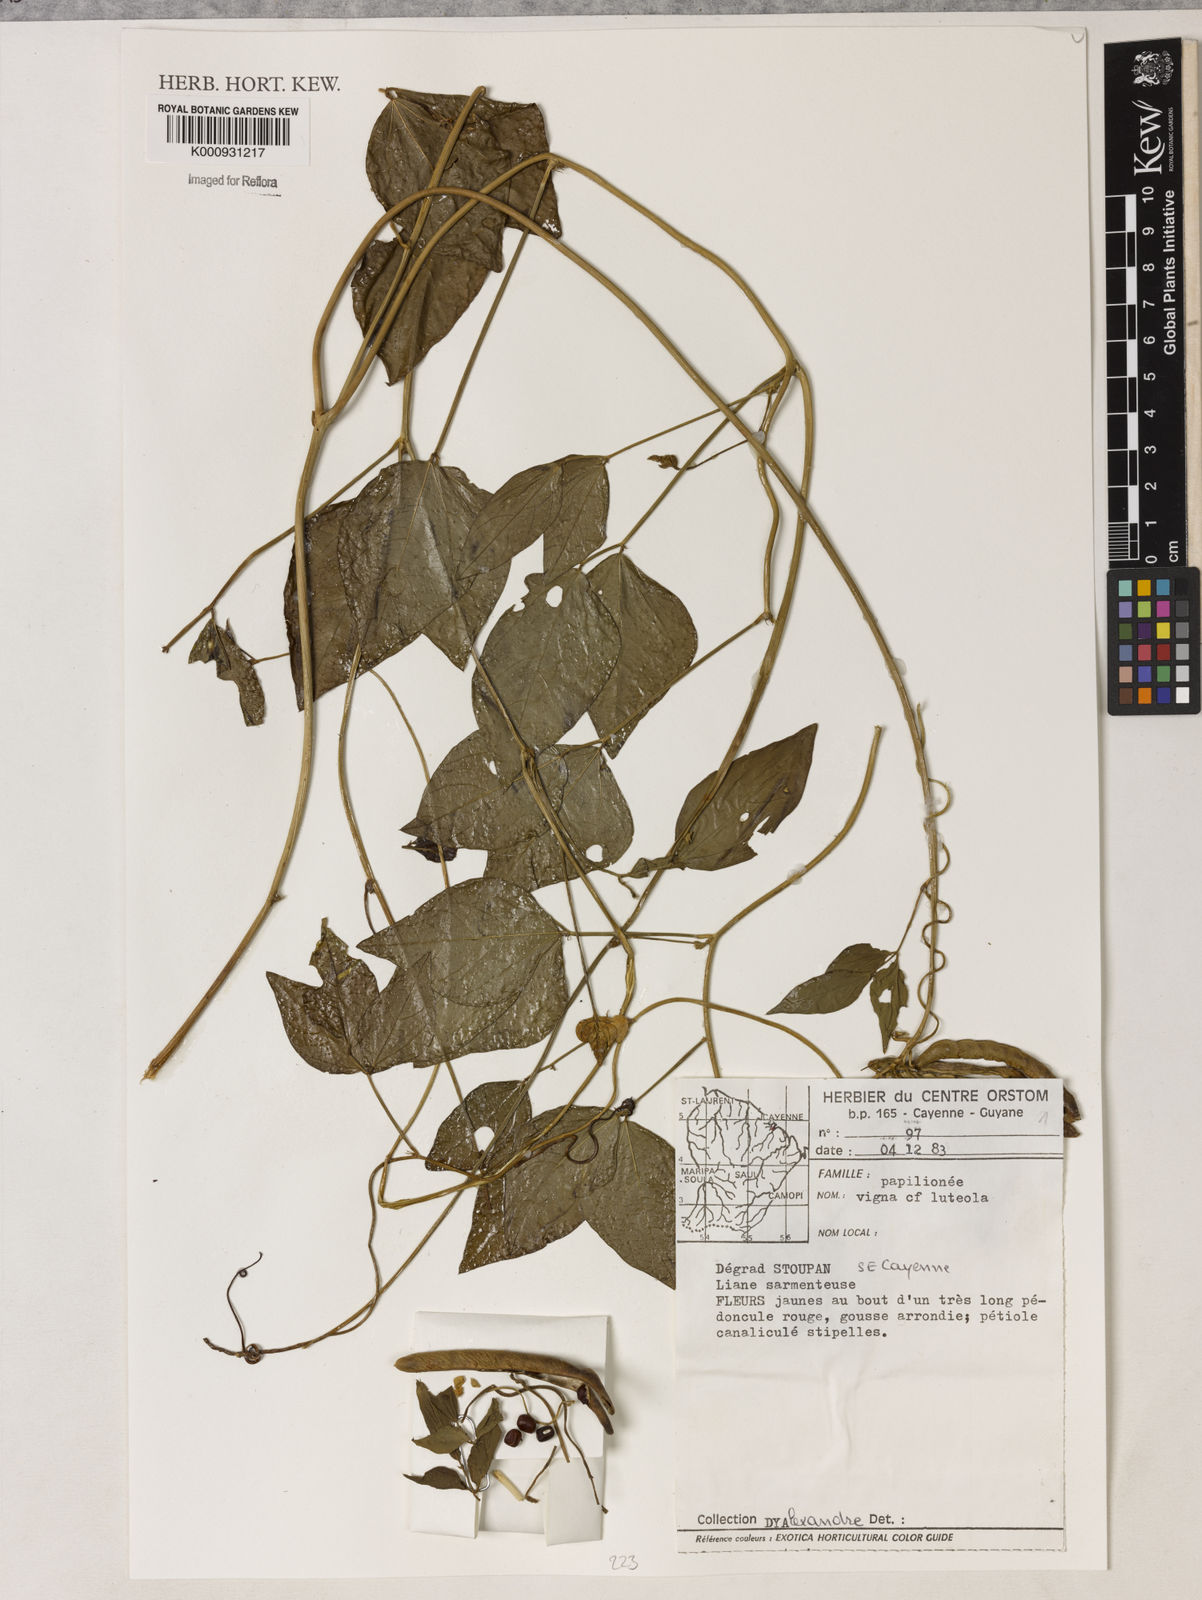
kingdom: Plantae
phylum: Tracheophyta
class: Magnoliopsida
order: Fabales
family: Fabaceae
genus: Vigna
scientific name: Vigna luteola
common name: Hairypod cowpea
